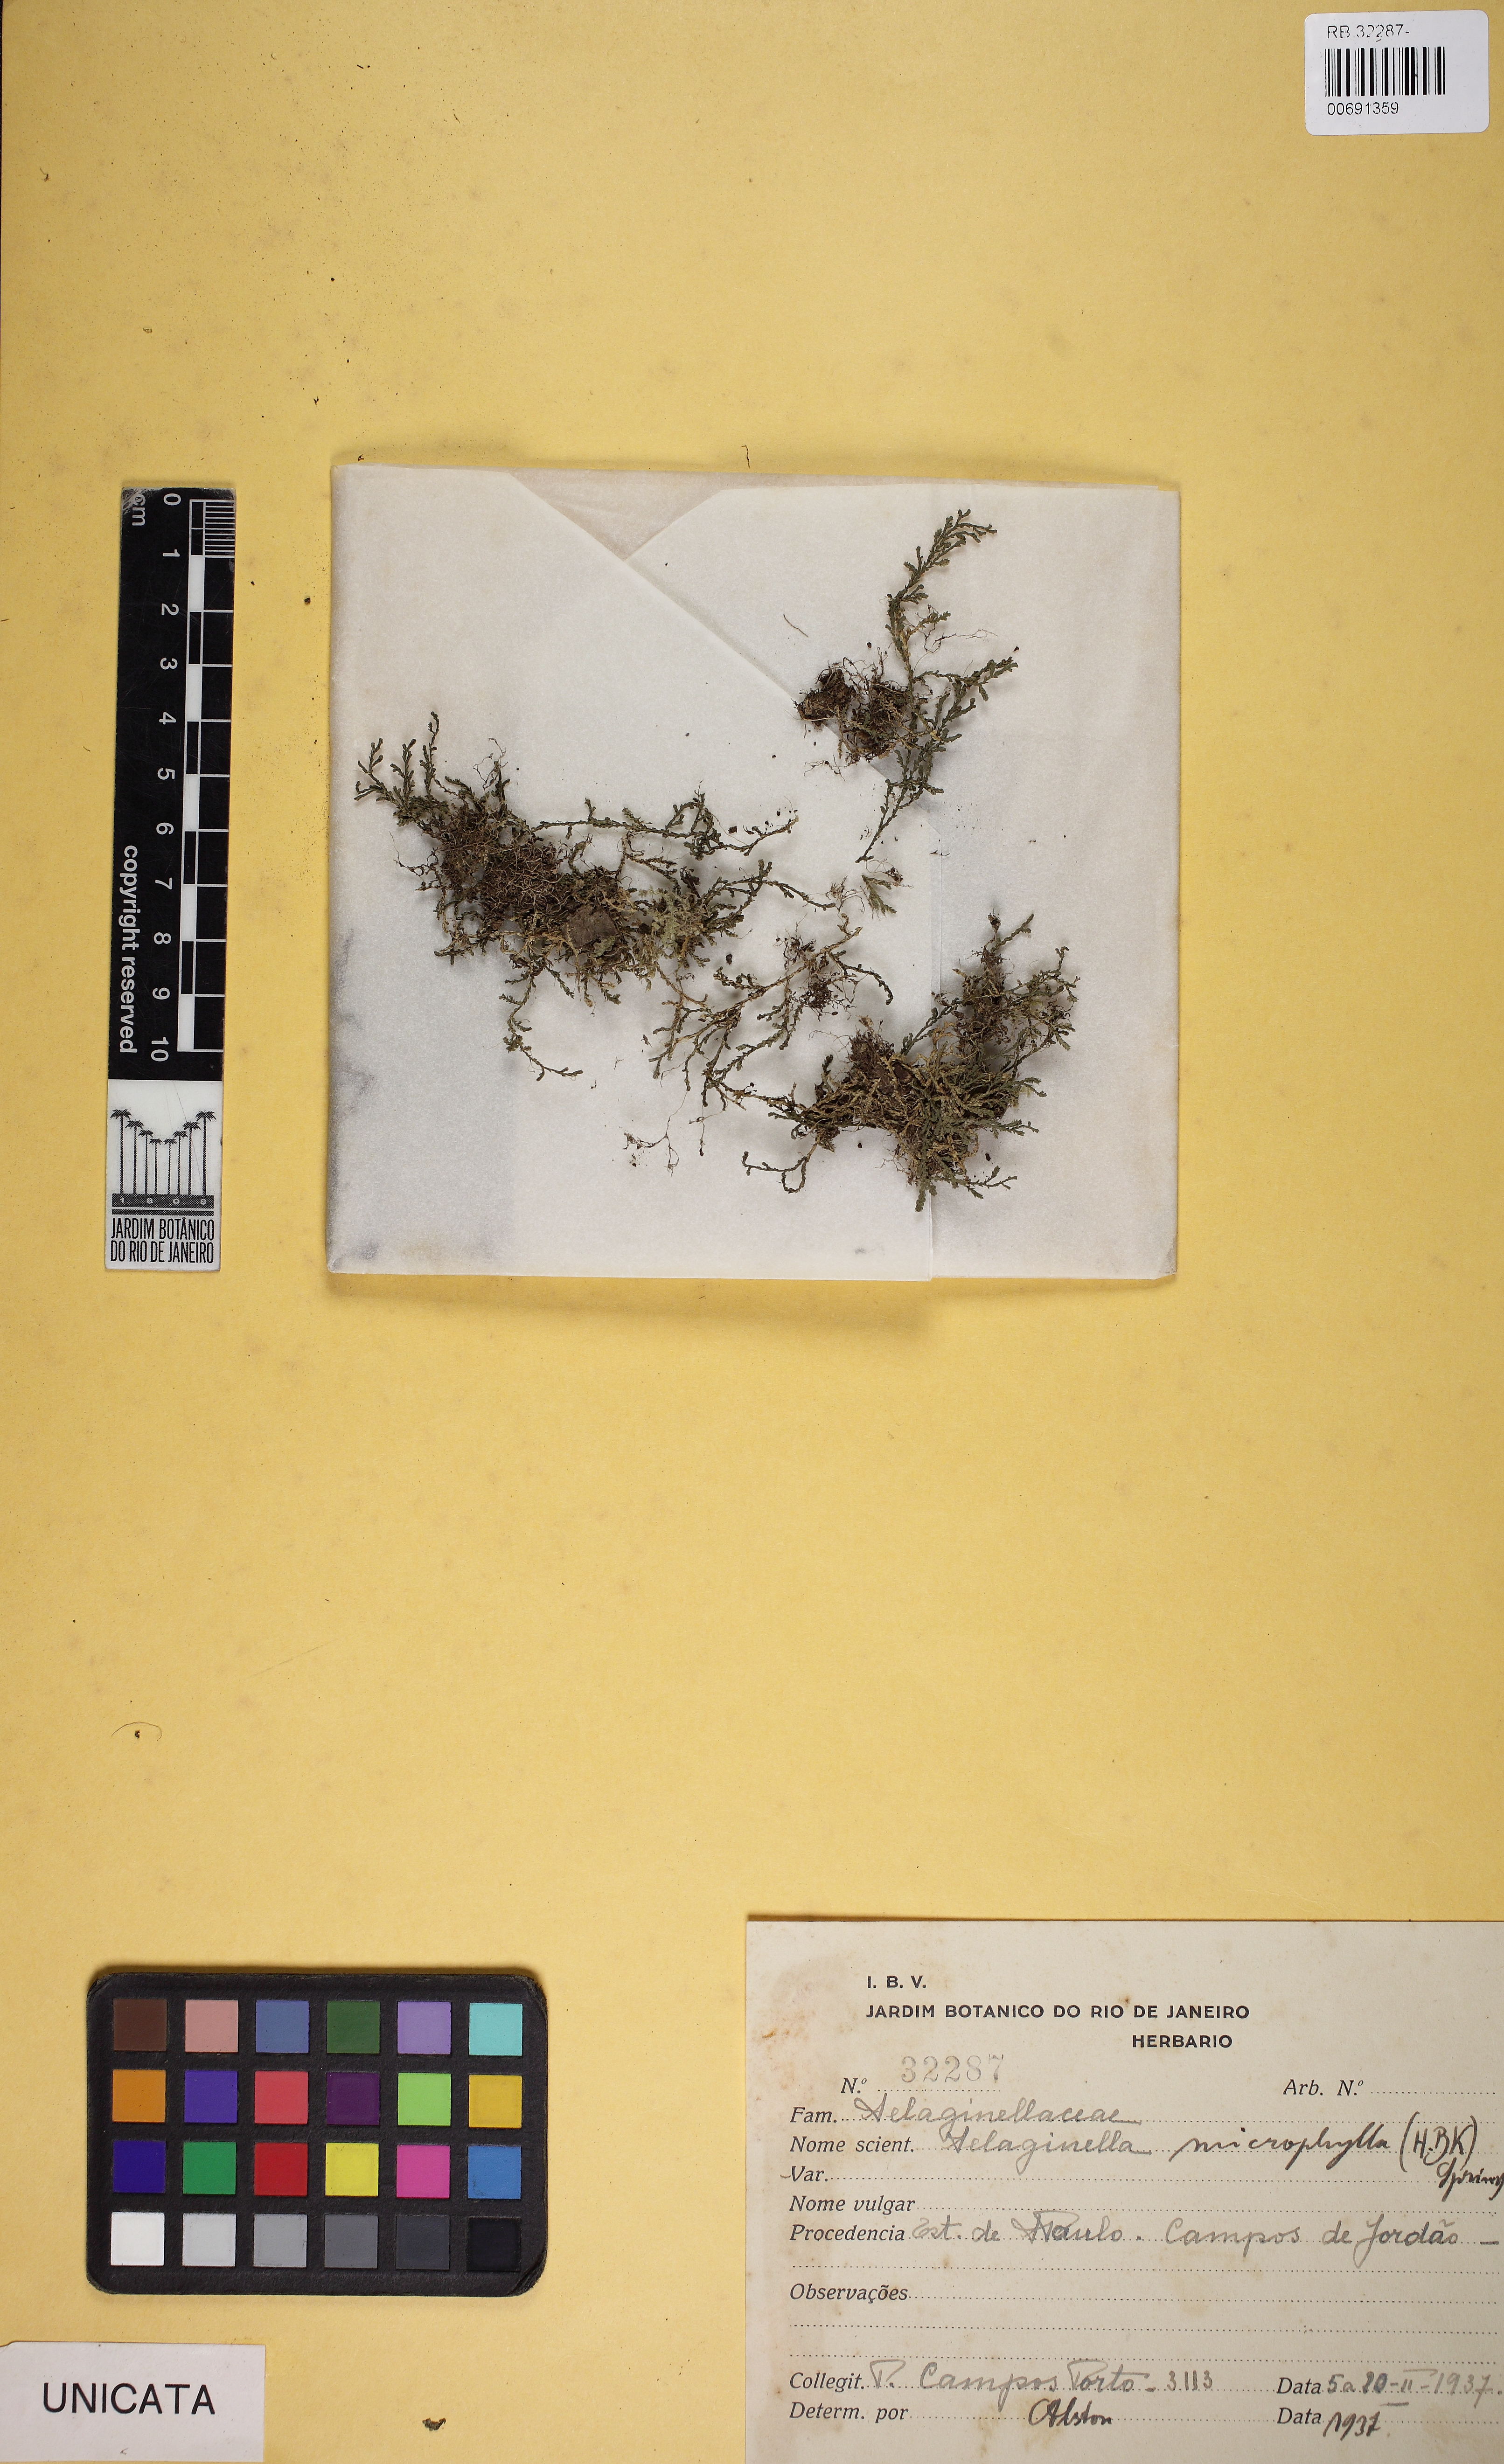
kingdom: Plantae
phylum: Tracheophyta
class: Lycopodiopsida
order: Selaginellales
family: Selaginellaceae
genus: Selaginella
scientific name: Selaginella microphylla
